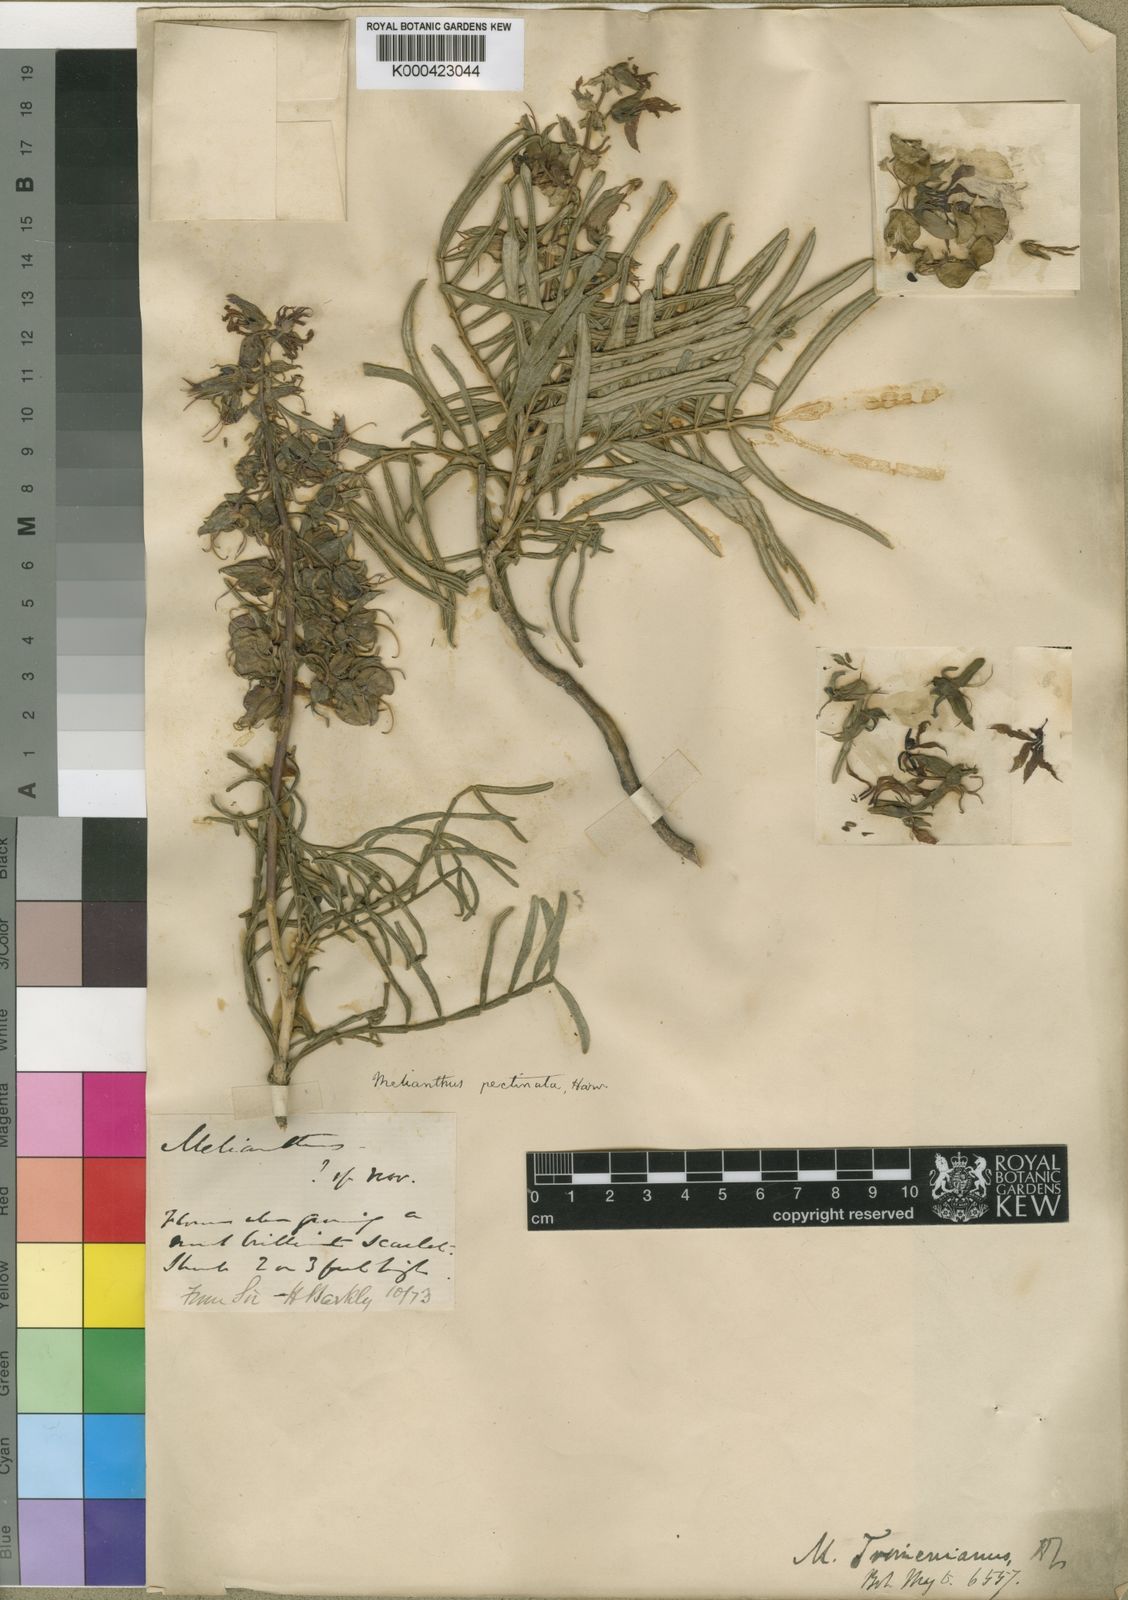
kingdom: Plantae
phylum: Tracheophyta
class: Magnoliopsida
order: Geraniales
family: Melianthaceae
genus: Melianthus
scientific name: Melianthus pectinatus
